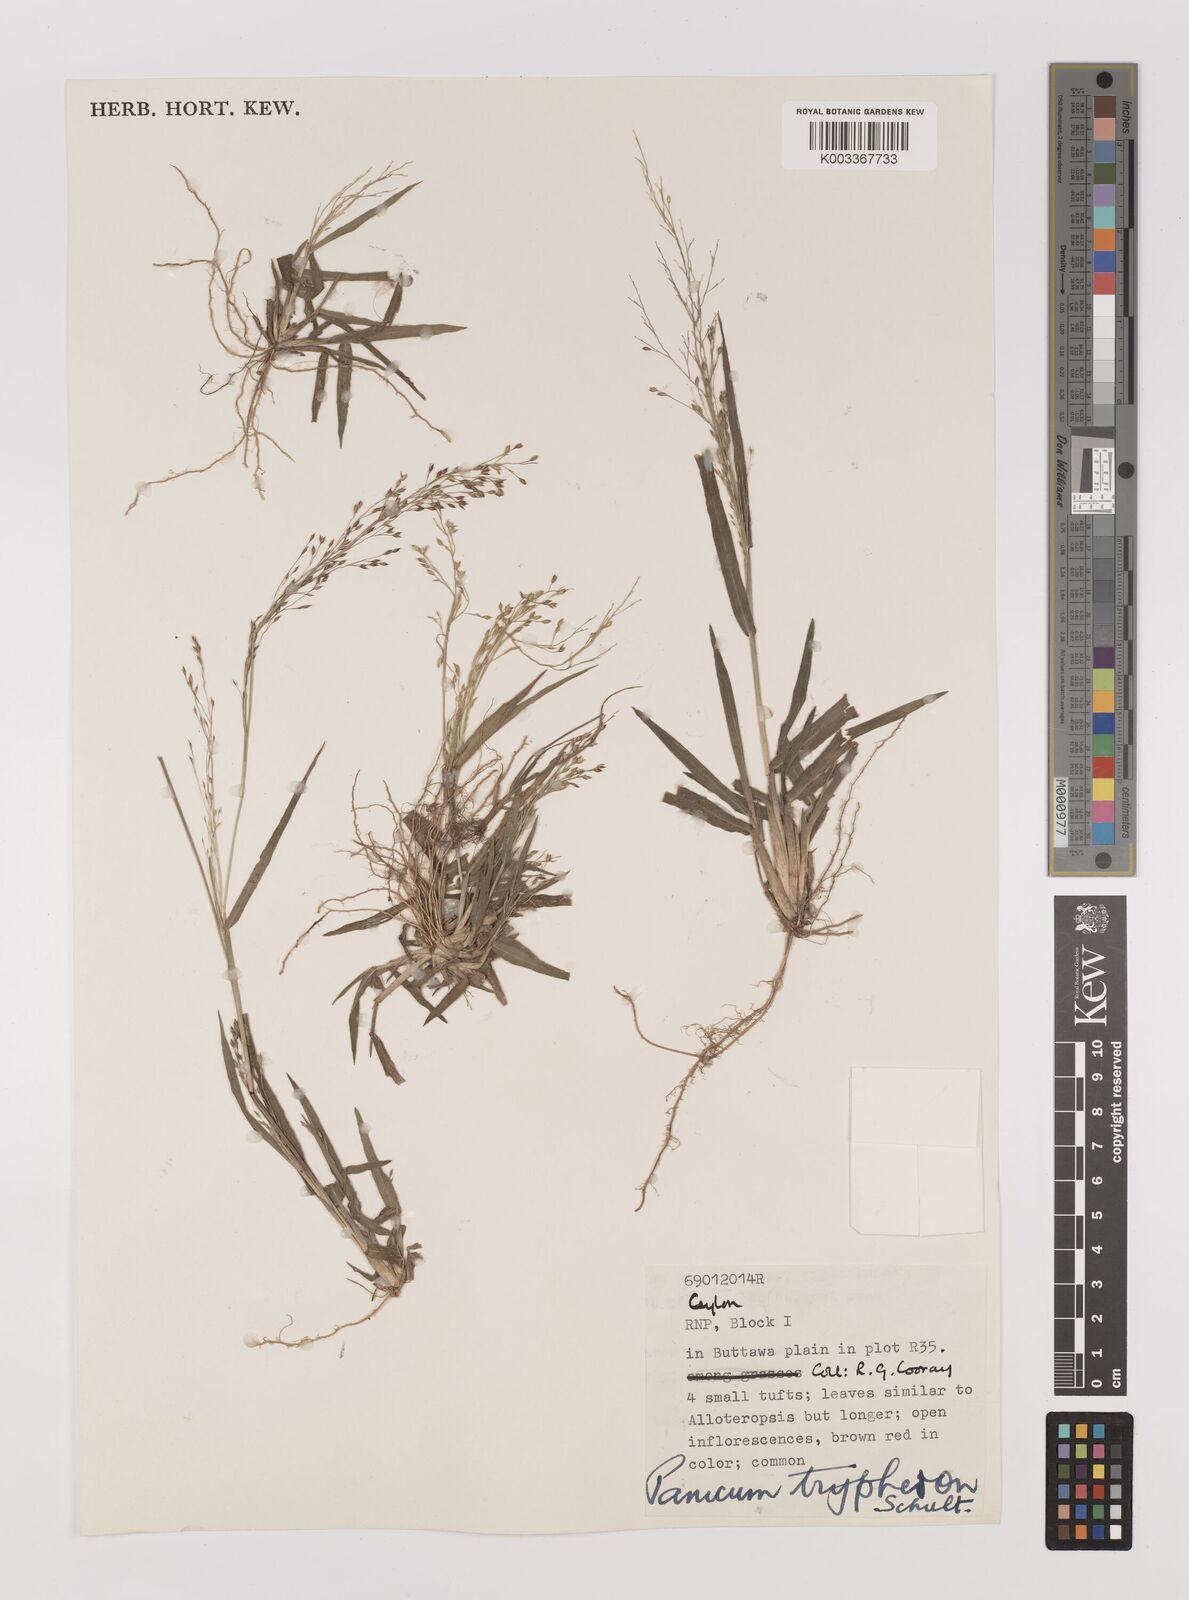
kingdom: Plantae
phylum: Tracheophyta
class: Liliopsida
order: Poales
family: Poaceae
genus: Panicum
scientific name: Panicum curviflorum
